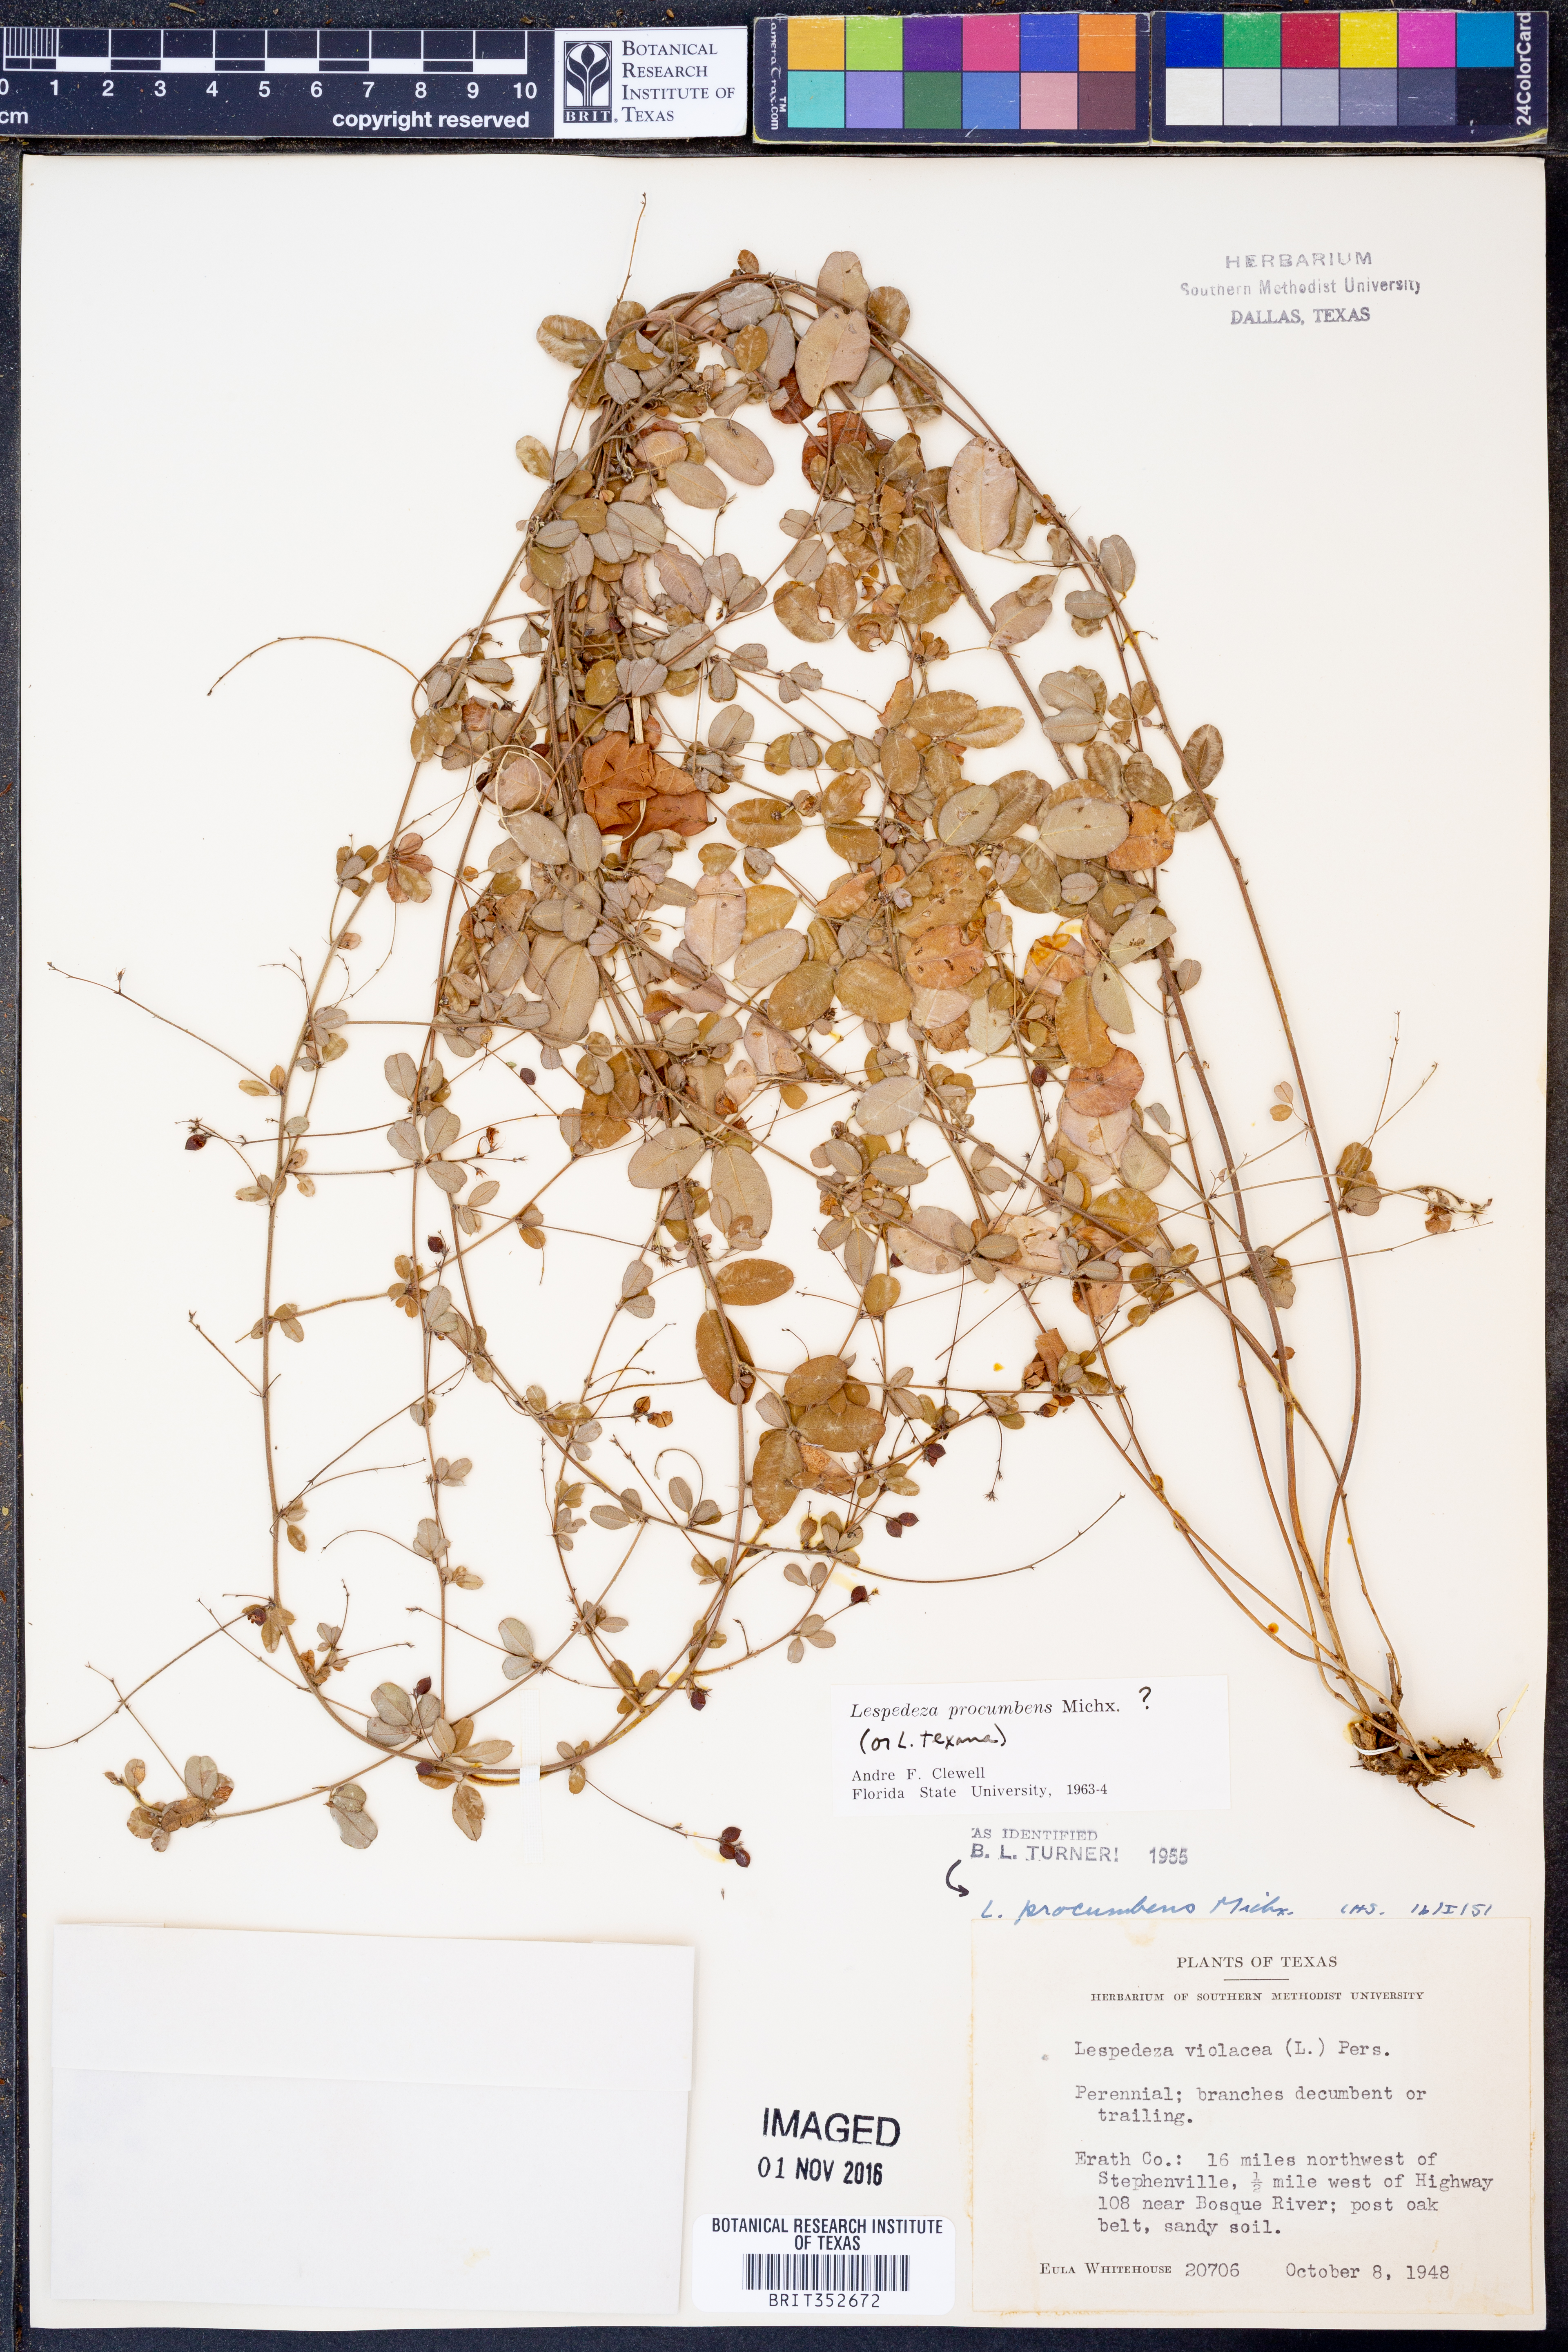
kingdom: Plantae
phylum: Tracheophyta
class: Magnoliopsida
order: Fabales
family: Fabaceae
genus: Lespedeza
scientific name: Lespedeza procumbens
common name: Downy trailing bush-clover
